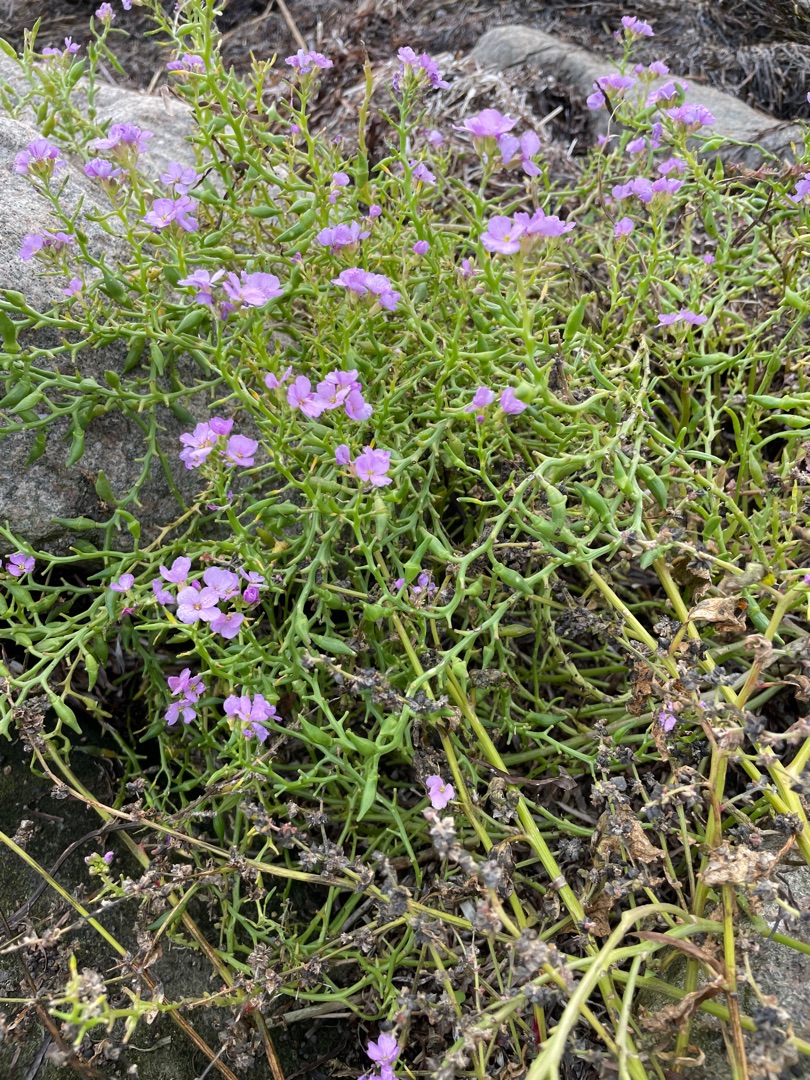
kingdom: Plantae
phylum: Tracheophyta
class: Magnoliopsida
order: Brassicales
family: Brassicaceae
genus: Cakile
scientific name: Cakile maritima
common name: Strandsennep
